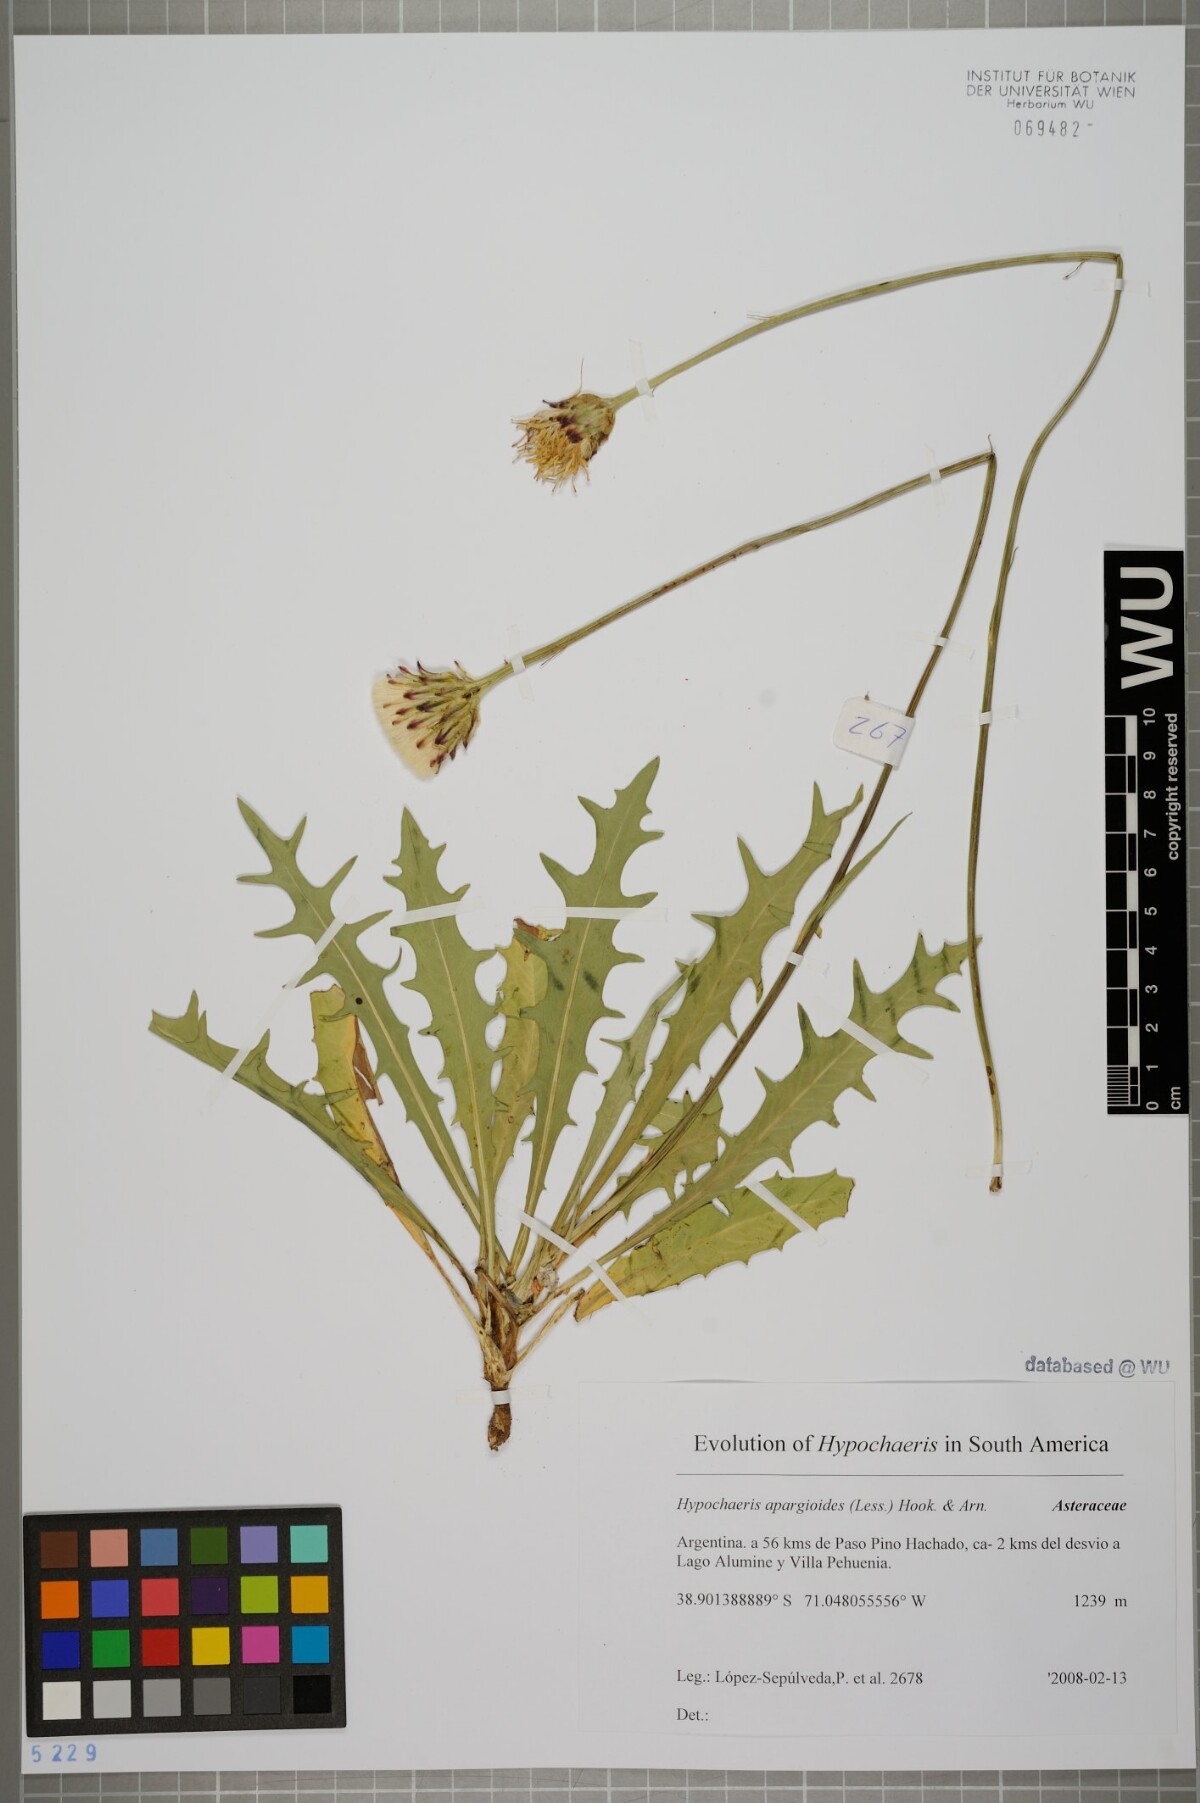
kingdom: Plantae
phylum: Tracheophyta
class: Magnoliopsida
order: Asterales
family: Asteraceae
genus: Hypochaeris
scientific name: Hypochaeris apargioides
